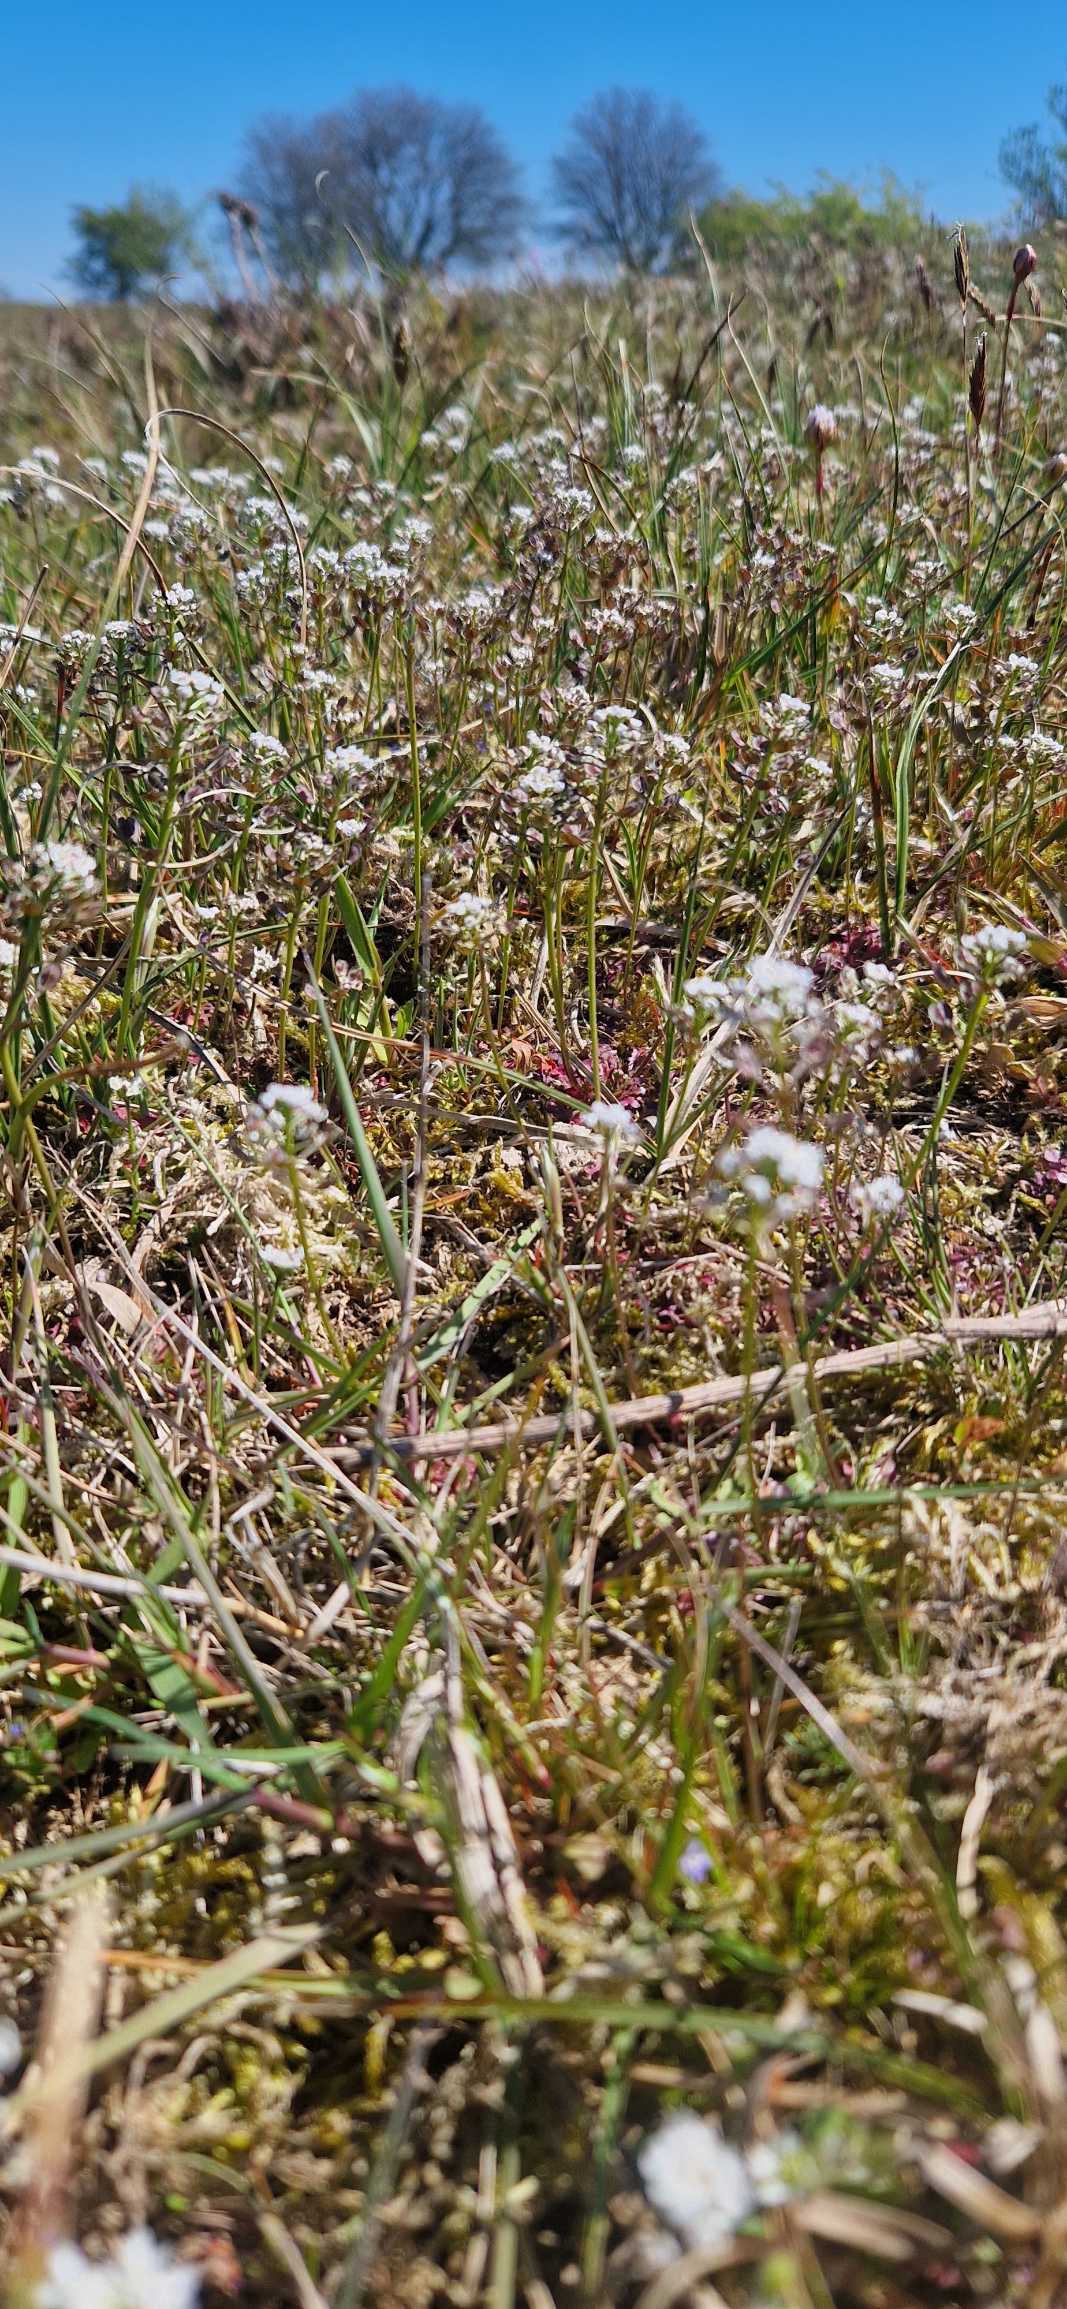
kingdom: Plantae
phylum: Tracheophyta
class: Magnoliopsida
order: Brassicales
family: Brassicaceae
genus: Teesdalia
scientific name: Teesdalia nudicaulis
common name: Flipkrave
